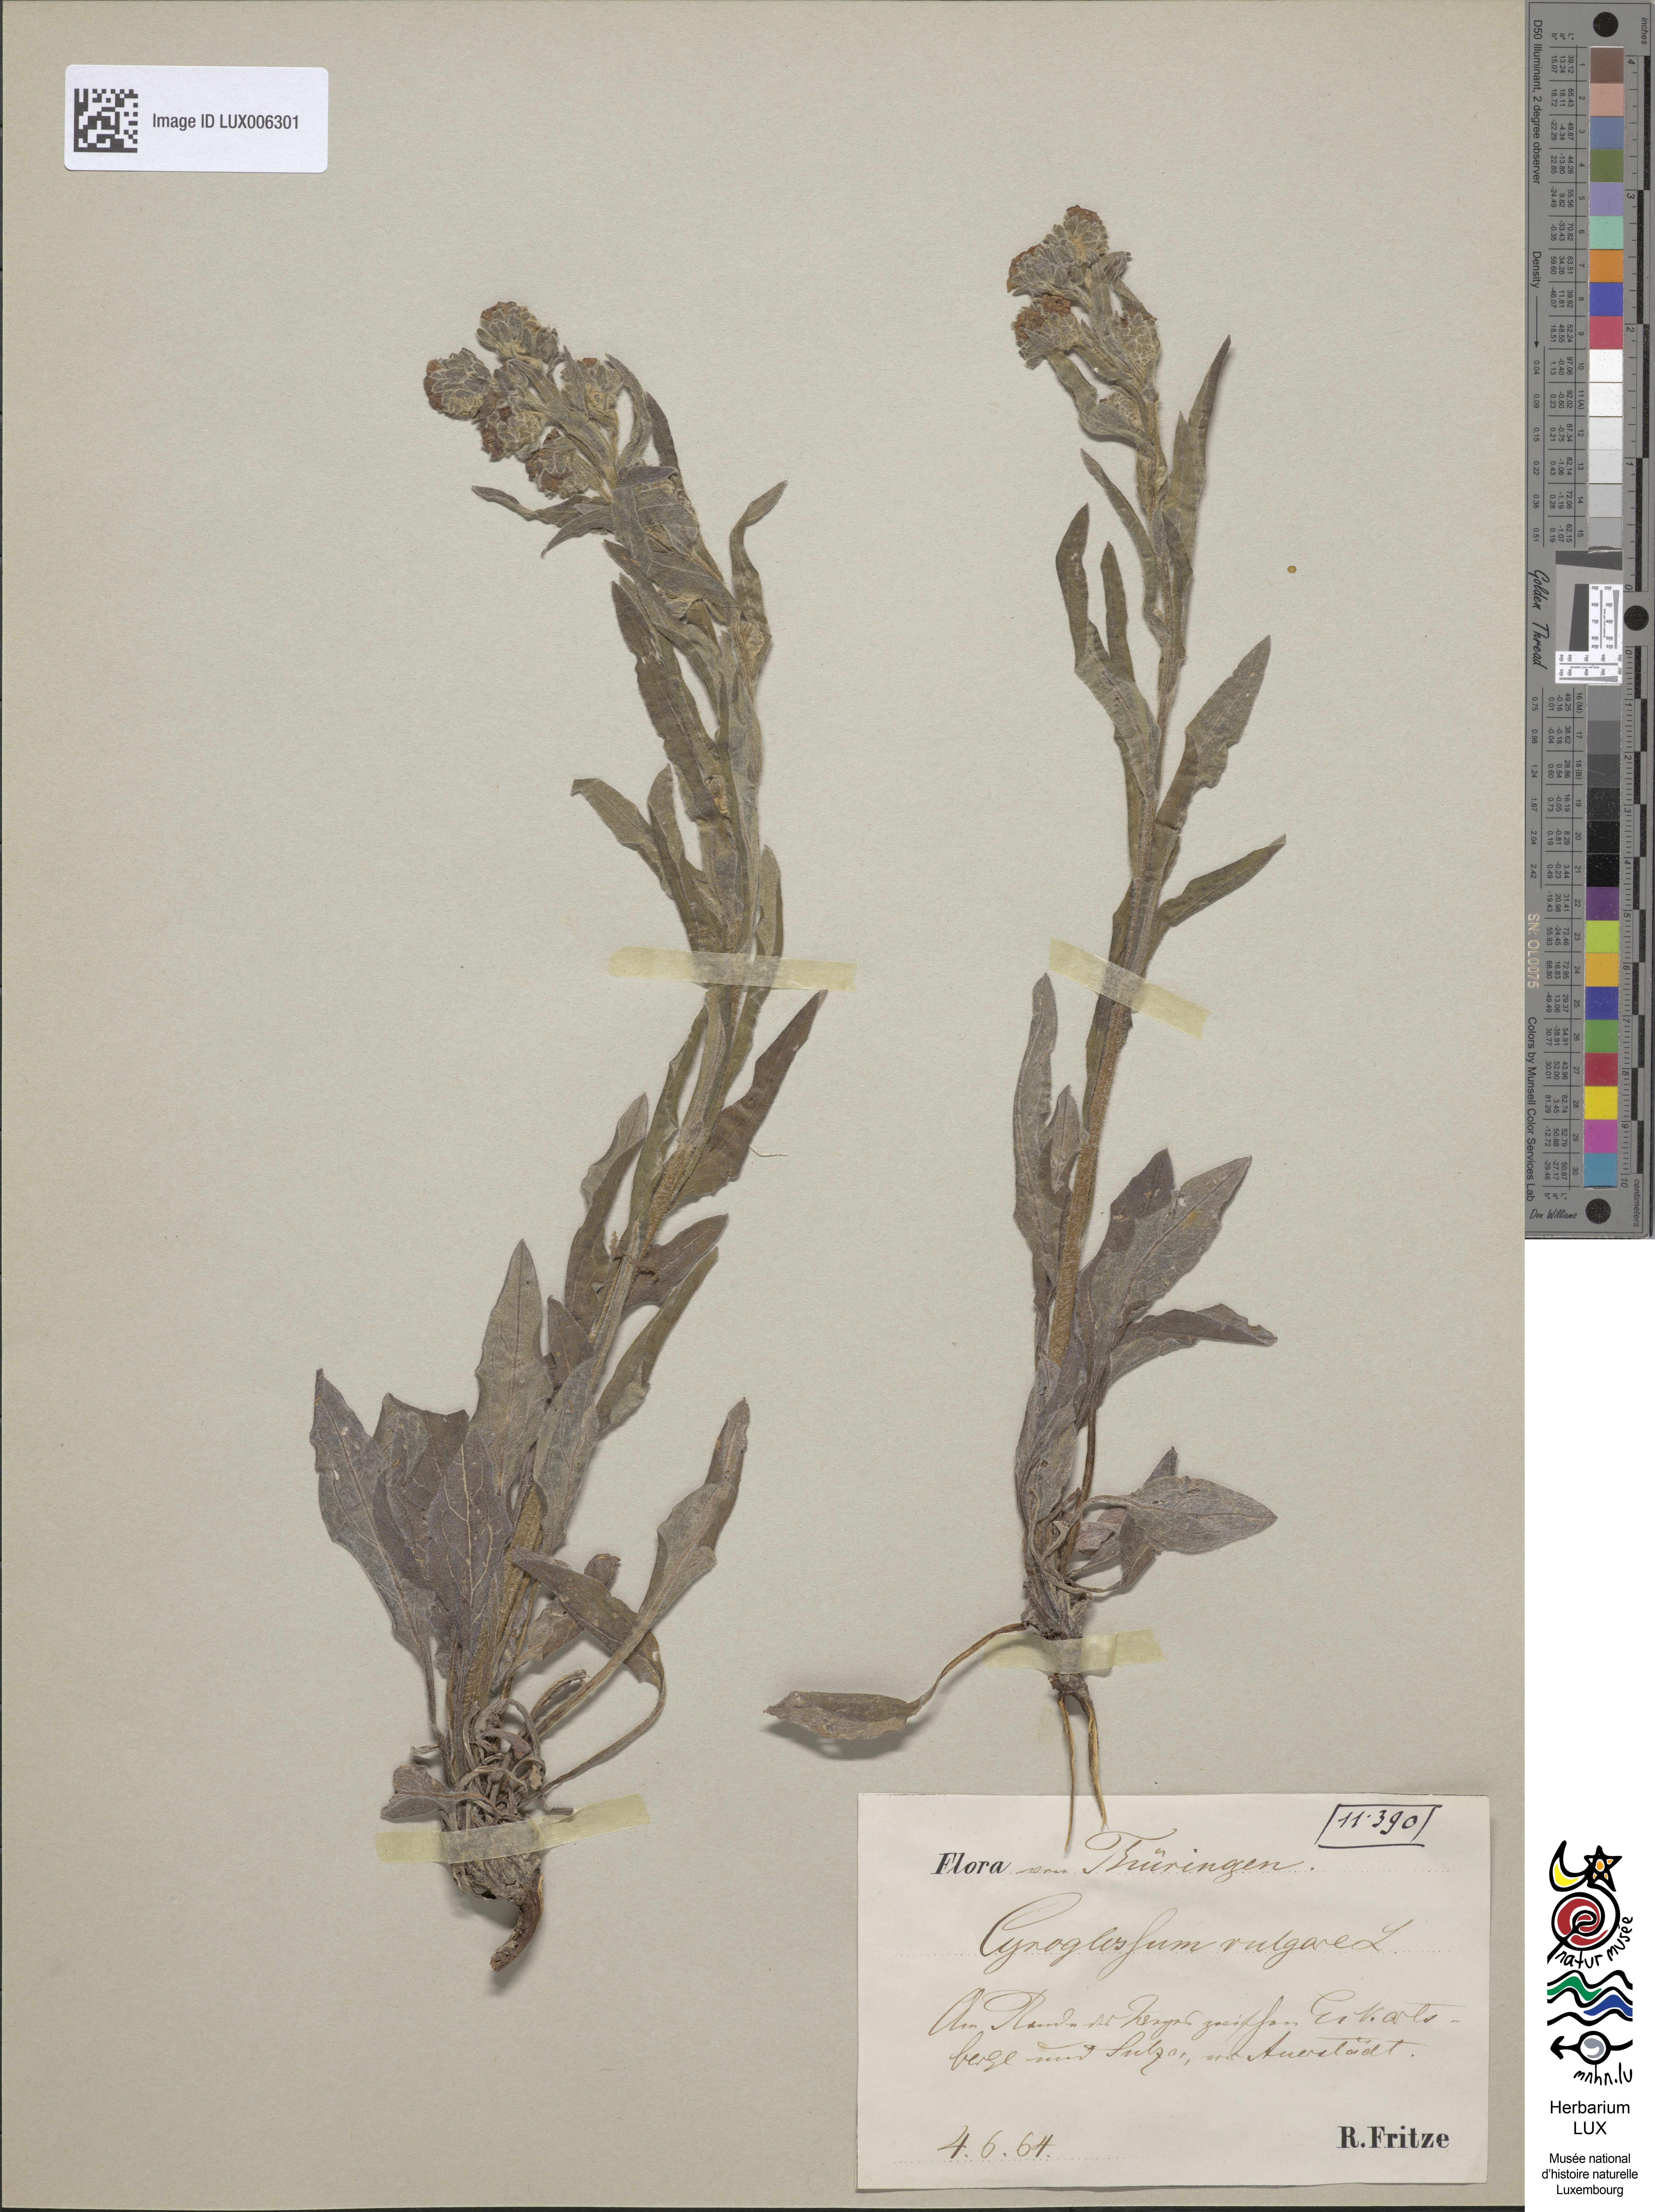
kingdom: Plantae
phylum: Tracheophyta
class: Magnoliopsida
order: Boraginales
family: Boraginaceae
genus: Cynoglossum
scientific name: Cynoglossum officinale
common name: Hound's-tongue
